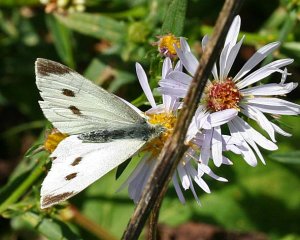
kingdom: Animalia
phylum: Arthropoda
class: Insecta
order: Lepidoptera
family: Pieridae
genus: Pieris
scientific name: Pieris rapae
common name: Cabbage White
